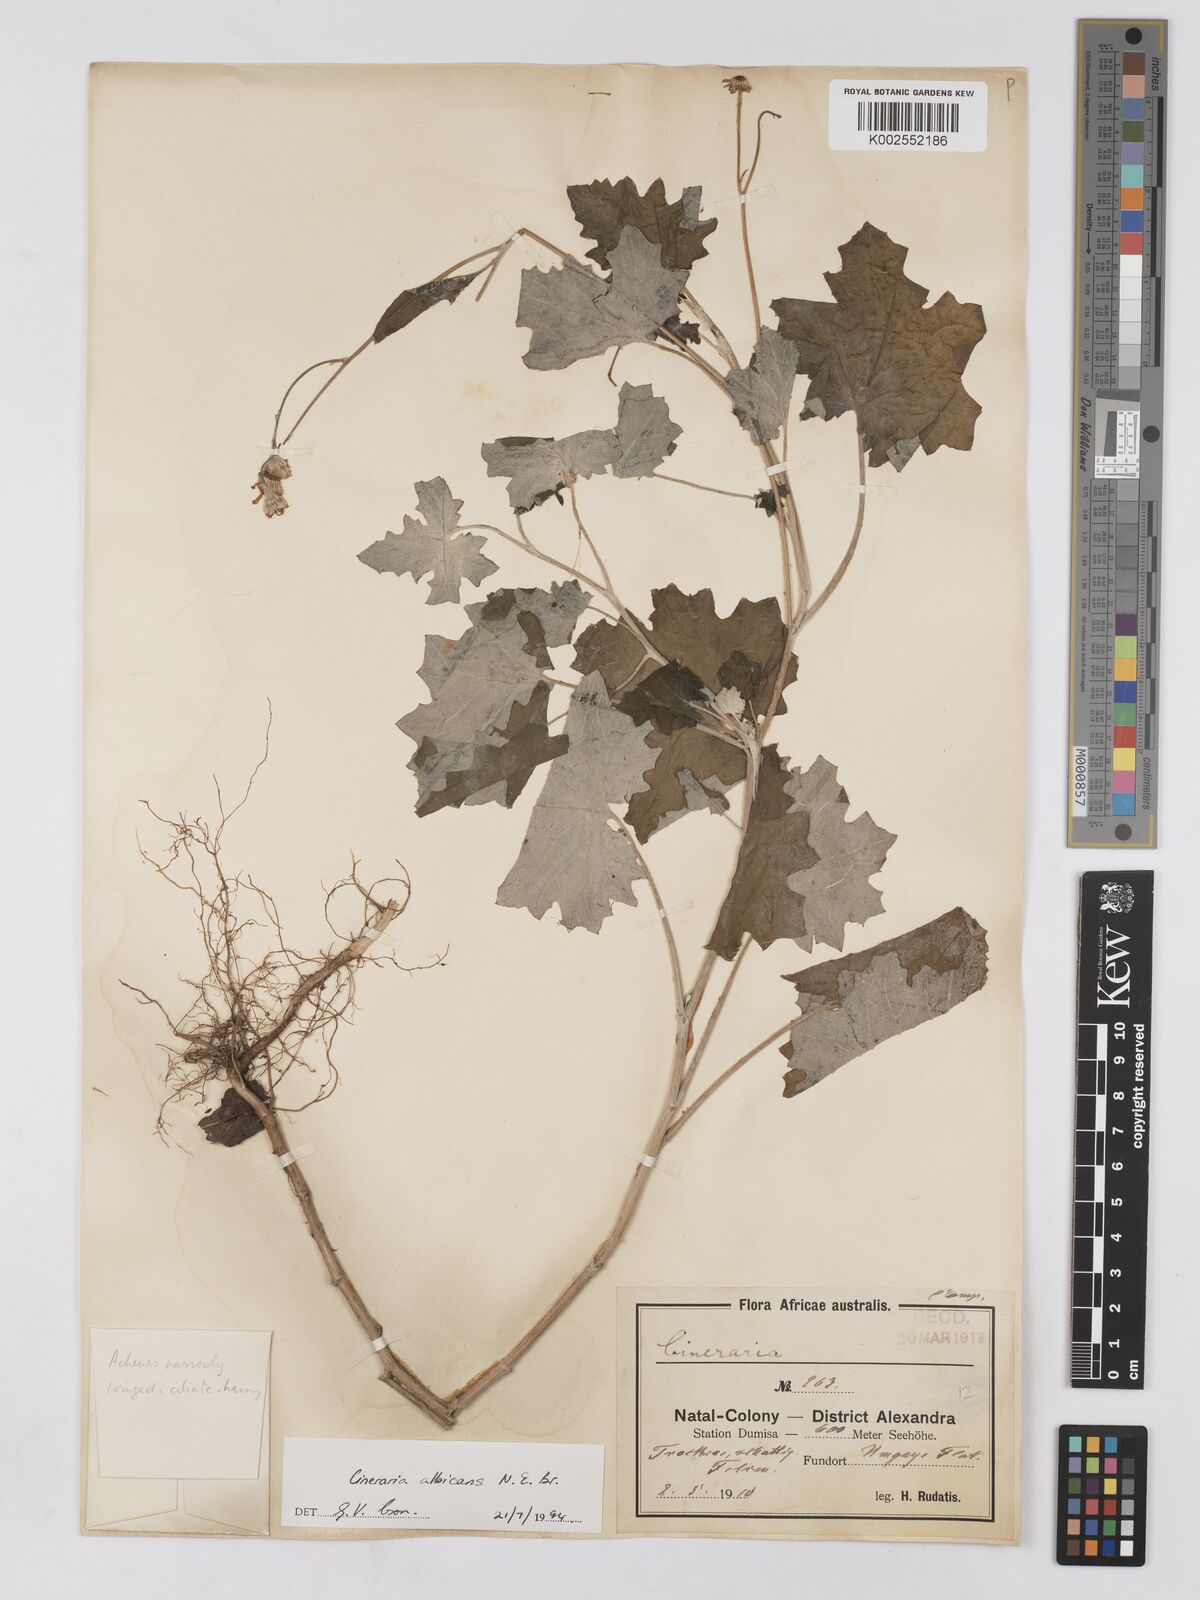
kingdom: Plantae
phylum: Tracheophyta
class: Magnoliopsida
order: Asterales
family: Asteraceae
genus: Cineraria
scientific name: Cineraria albicans
